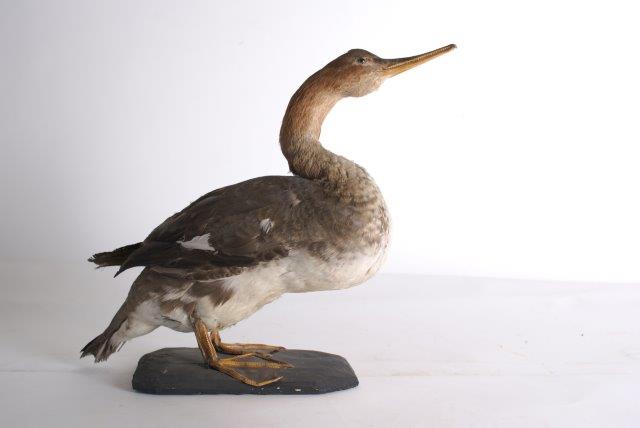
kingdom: Animalia
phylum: Chordata
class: Aves
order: Anseriformes
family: Anatidae
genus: Mergus
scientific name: Mergus serrator
